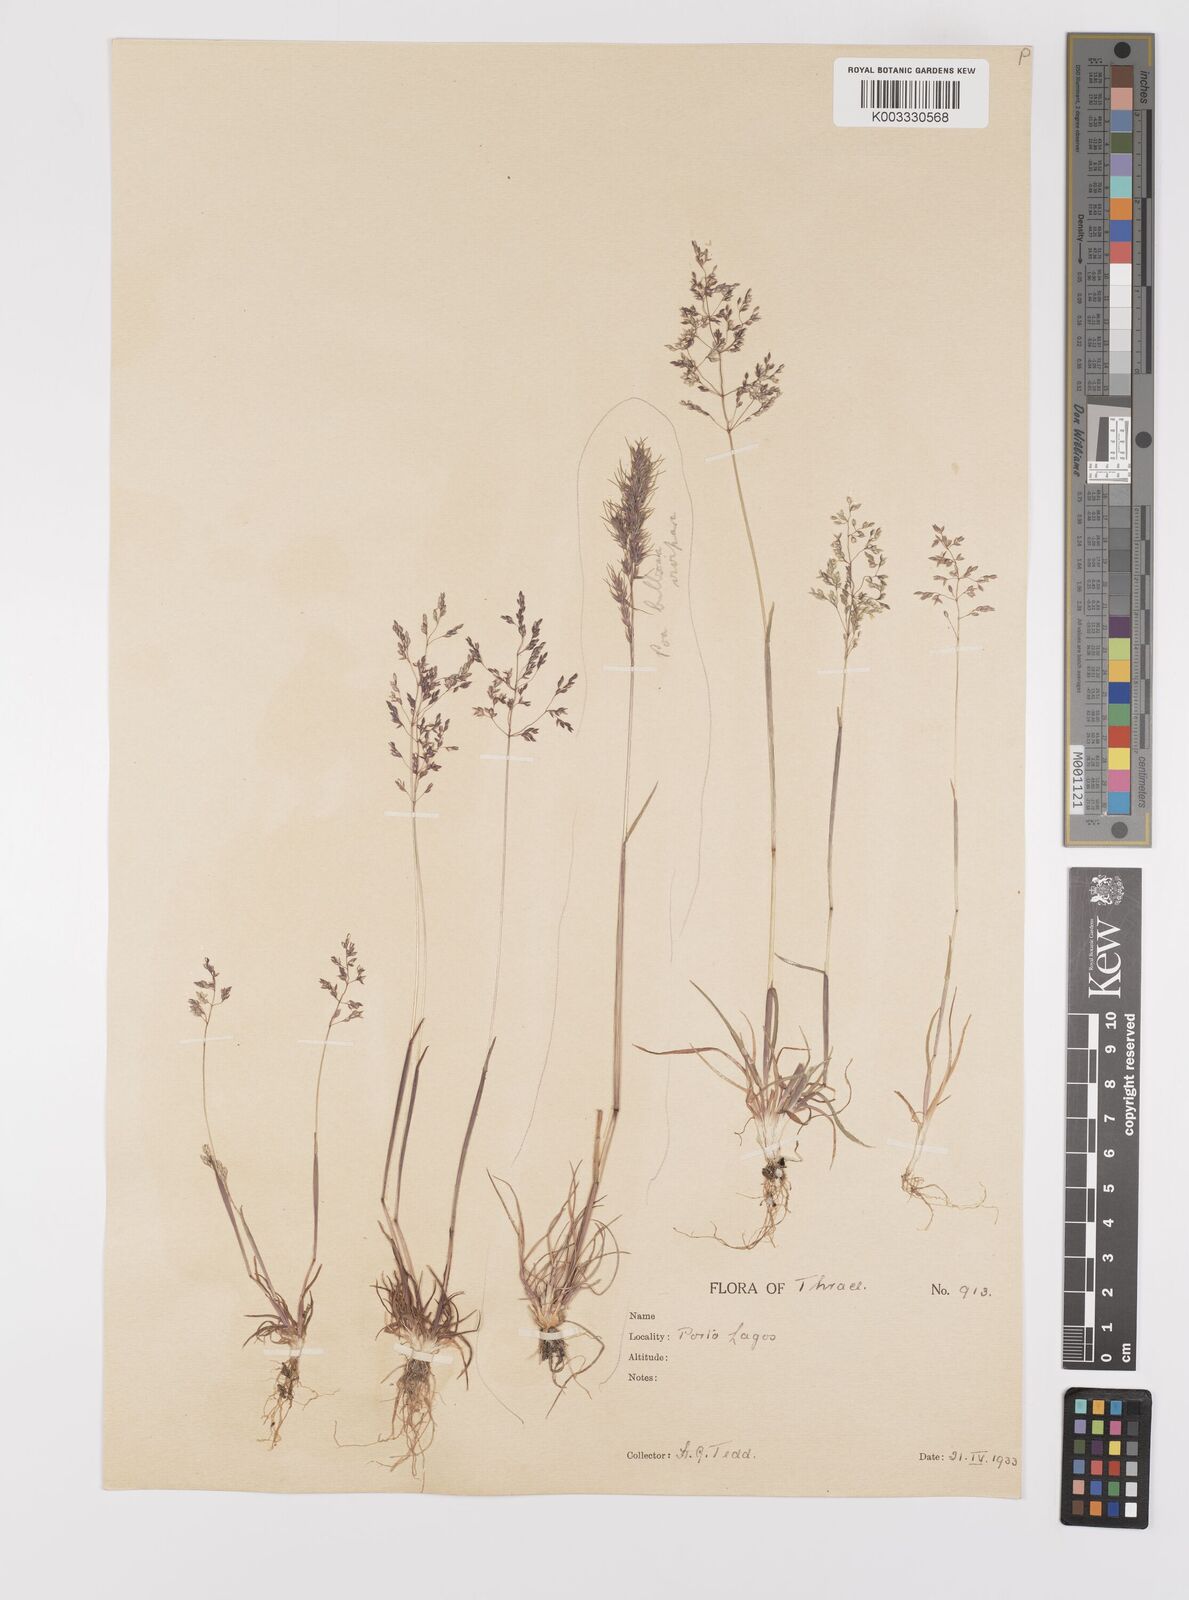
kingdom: Plantae
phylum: Tracheophyta
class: Liliopsida
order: Poales
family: Poaceae
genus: Milium
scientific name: Milium vernale
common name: Early millet
